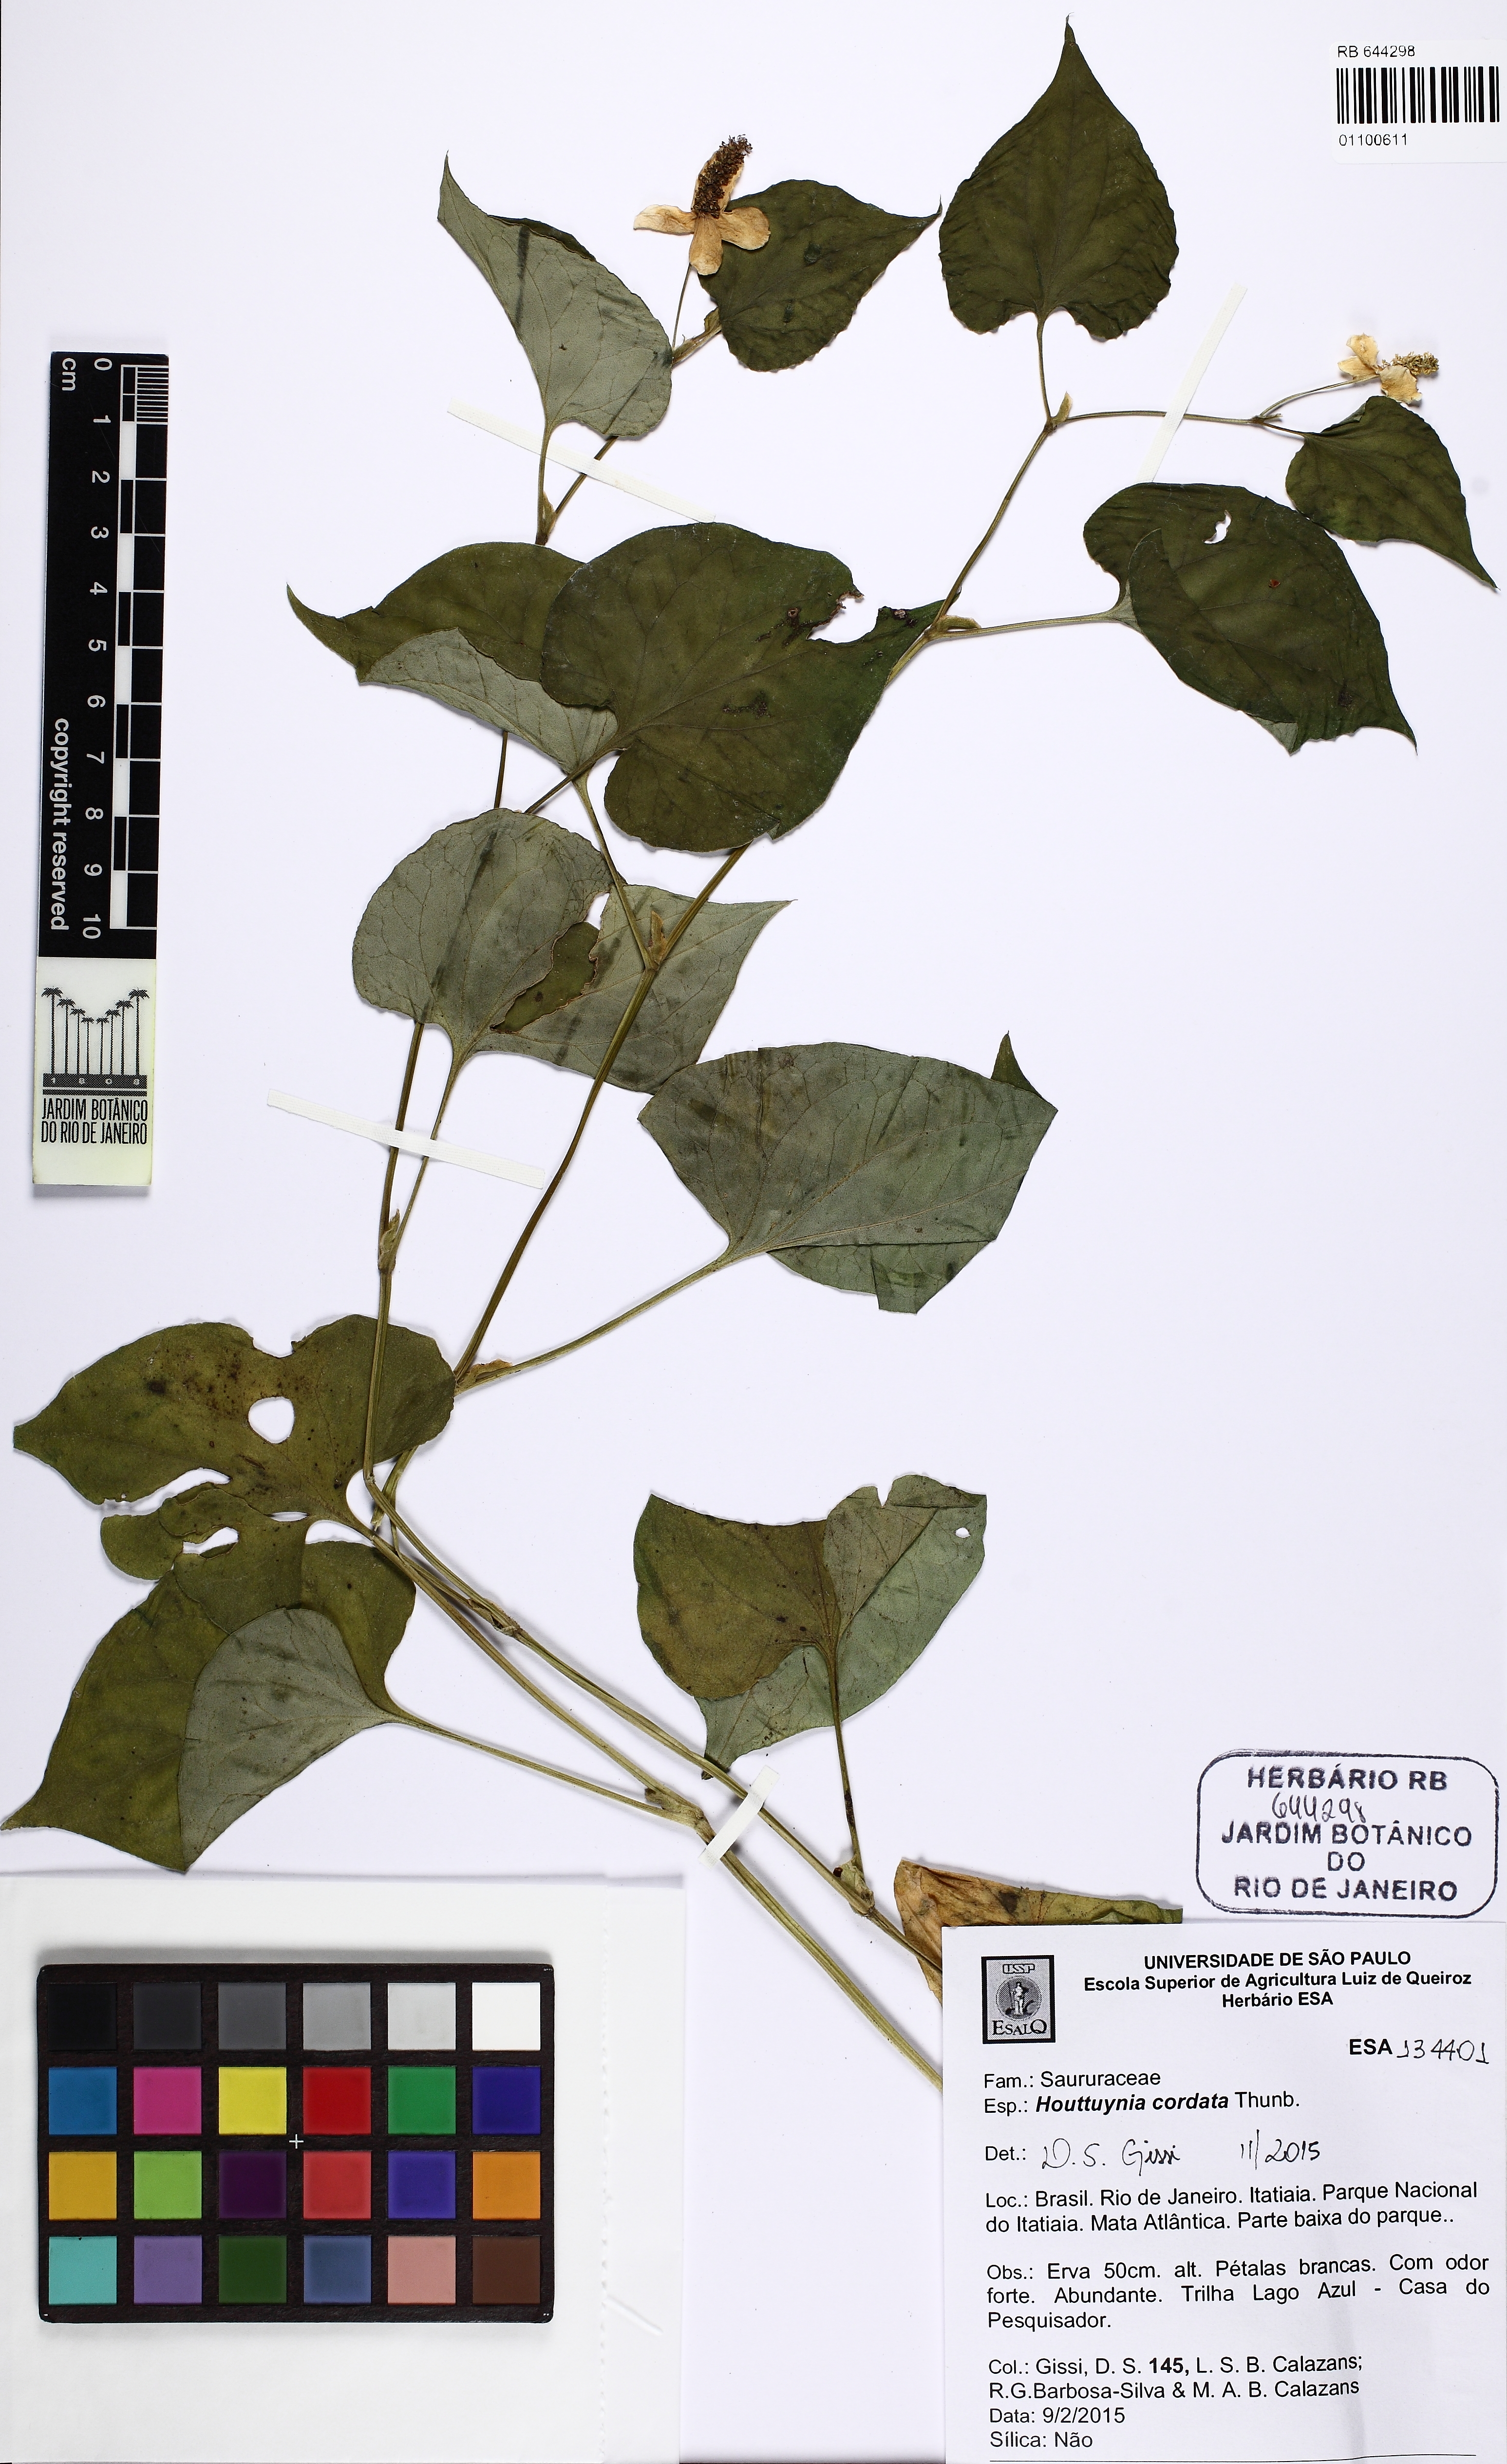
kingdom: Plantae
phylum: Tracheophyta
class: Magnoliopsida
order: Piperales
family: Saururaceae
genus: Houttuynia
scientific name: Houttuynia cordata
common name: Chameleon
